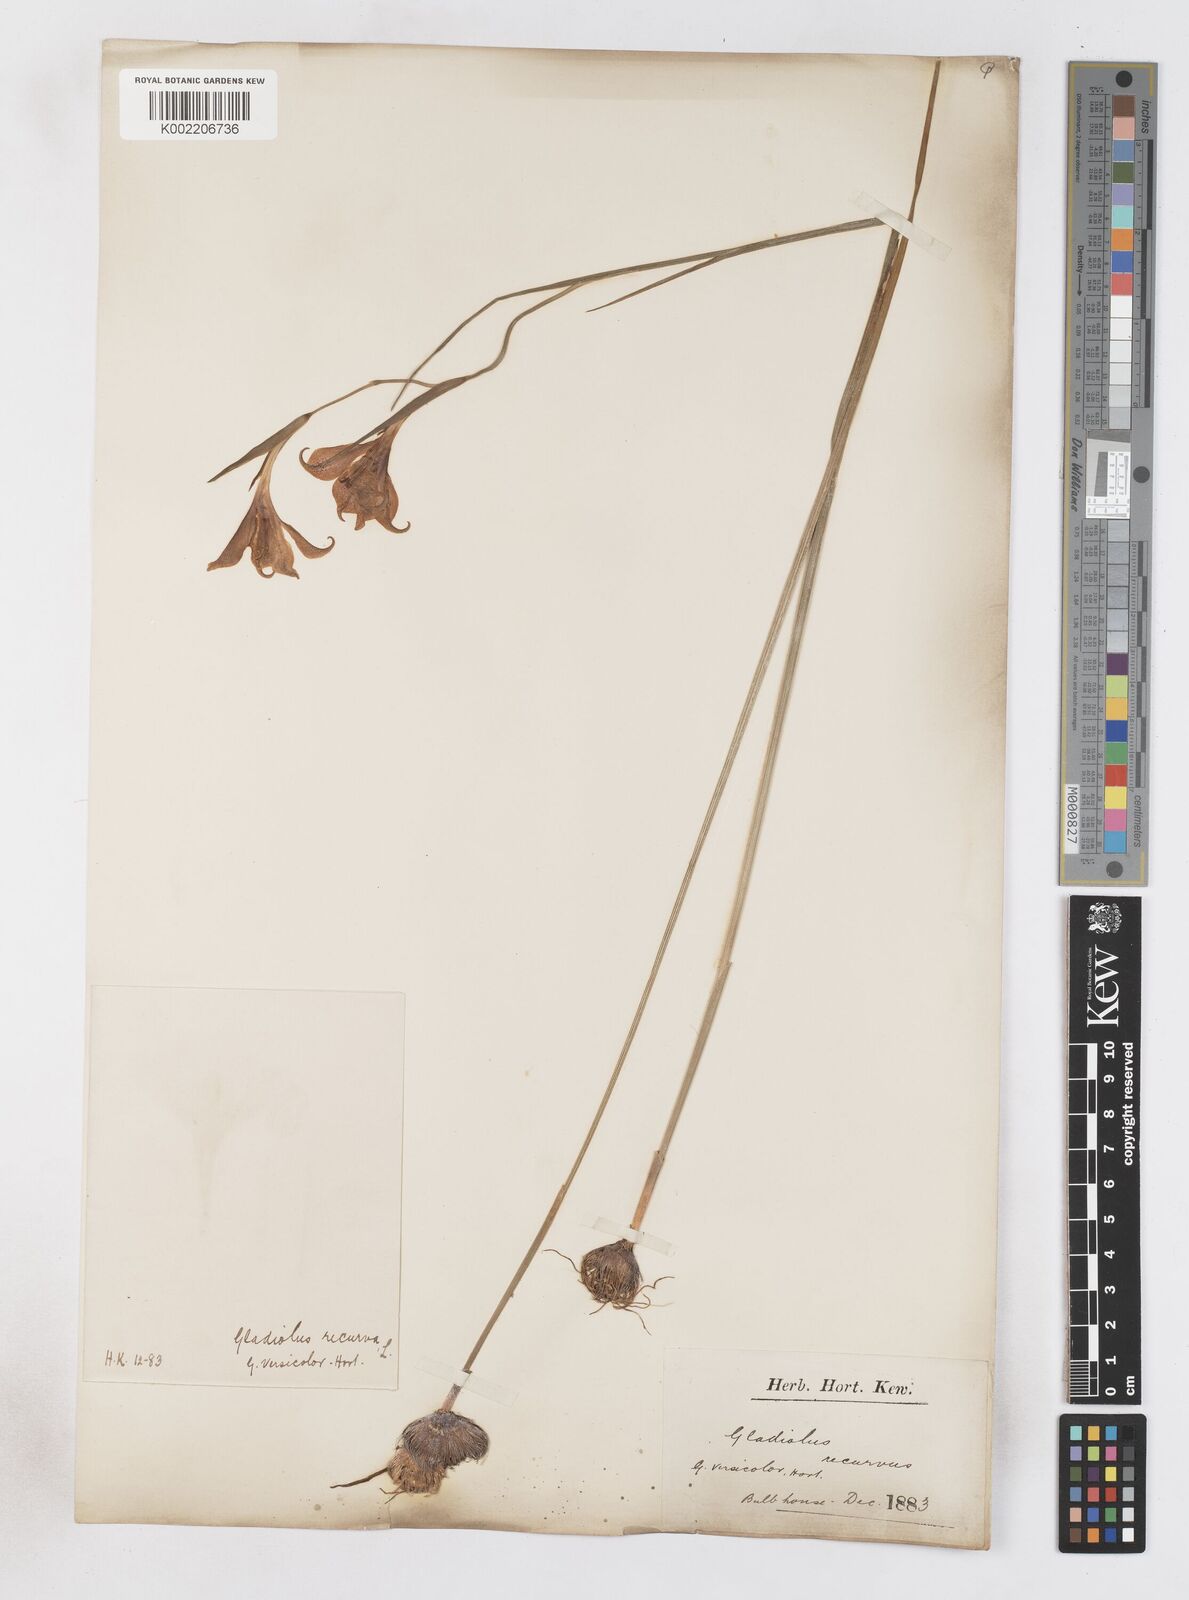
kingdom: Plantae
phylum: Tracheophyta
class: Liliopsida
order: Asparagales
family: Iridaceae
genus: Gladiolus
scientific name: Gladiolus recurvus
